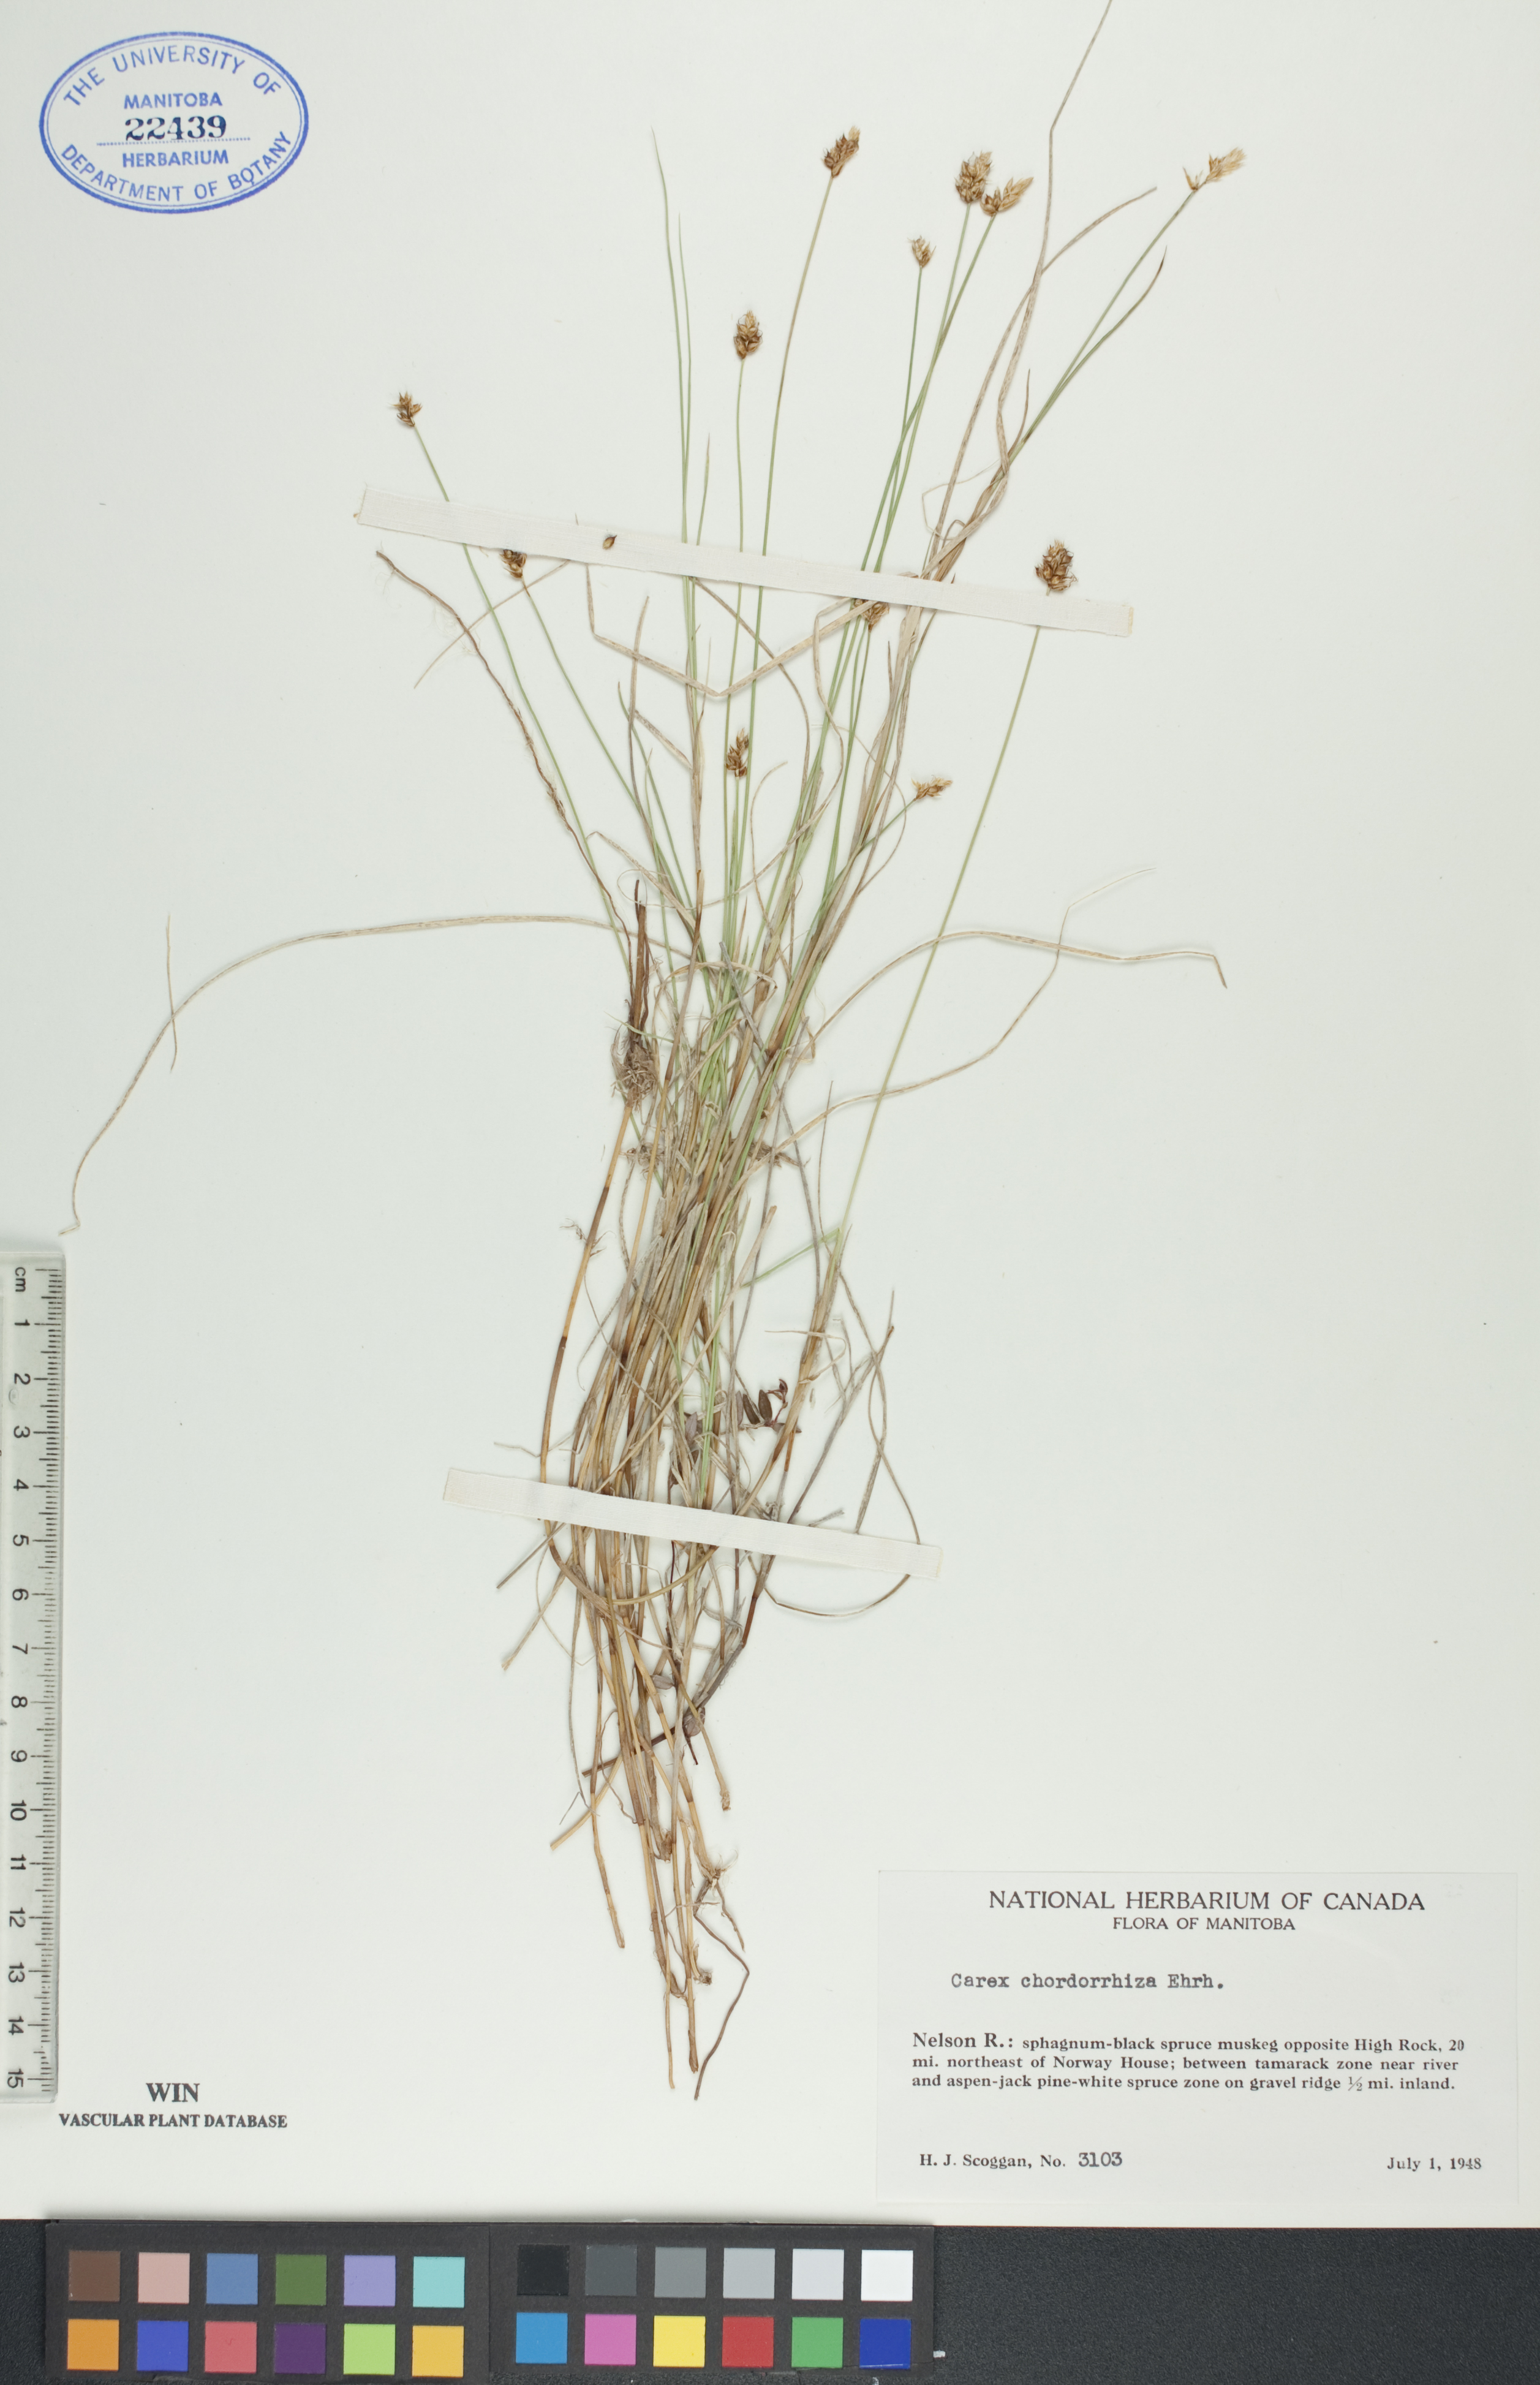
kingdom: Plantae
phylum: Tracheophyta
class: Liliopsida
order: Poales
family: Cyperaceae
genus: Carex
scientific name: Carex chordorrhiza
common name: String sedge
